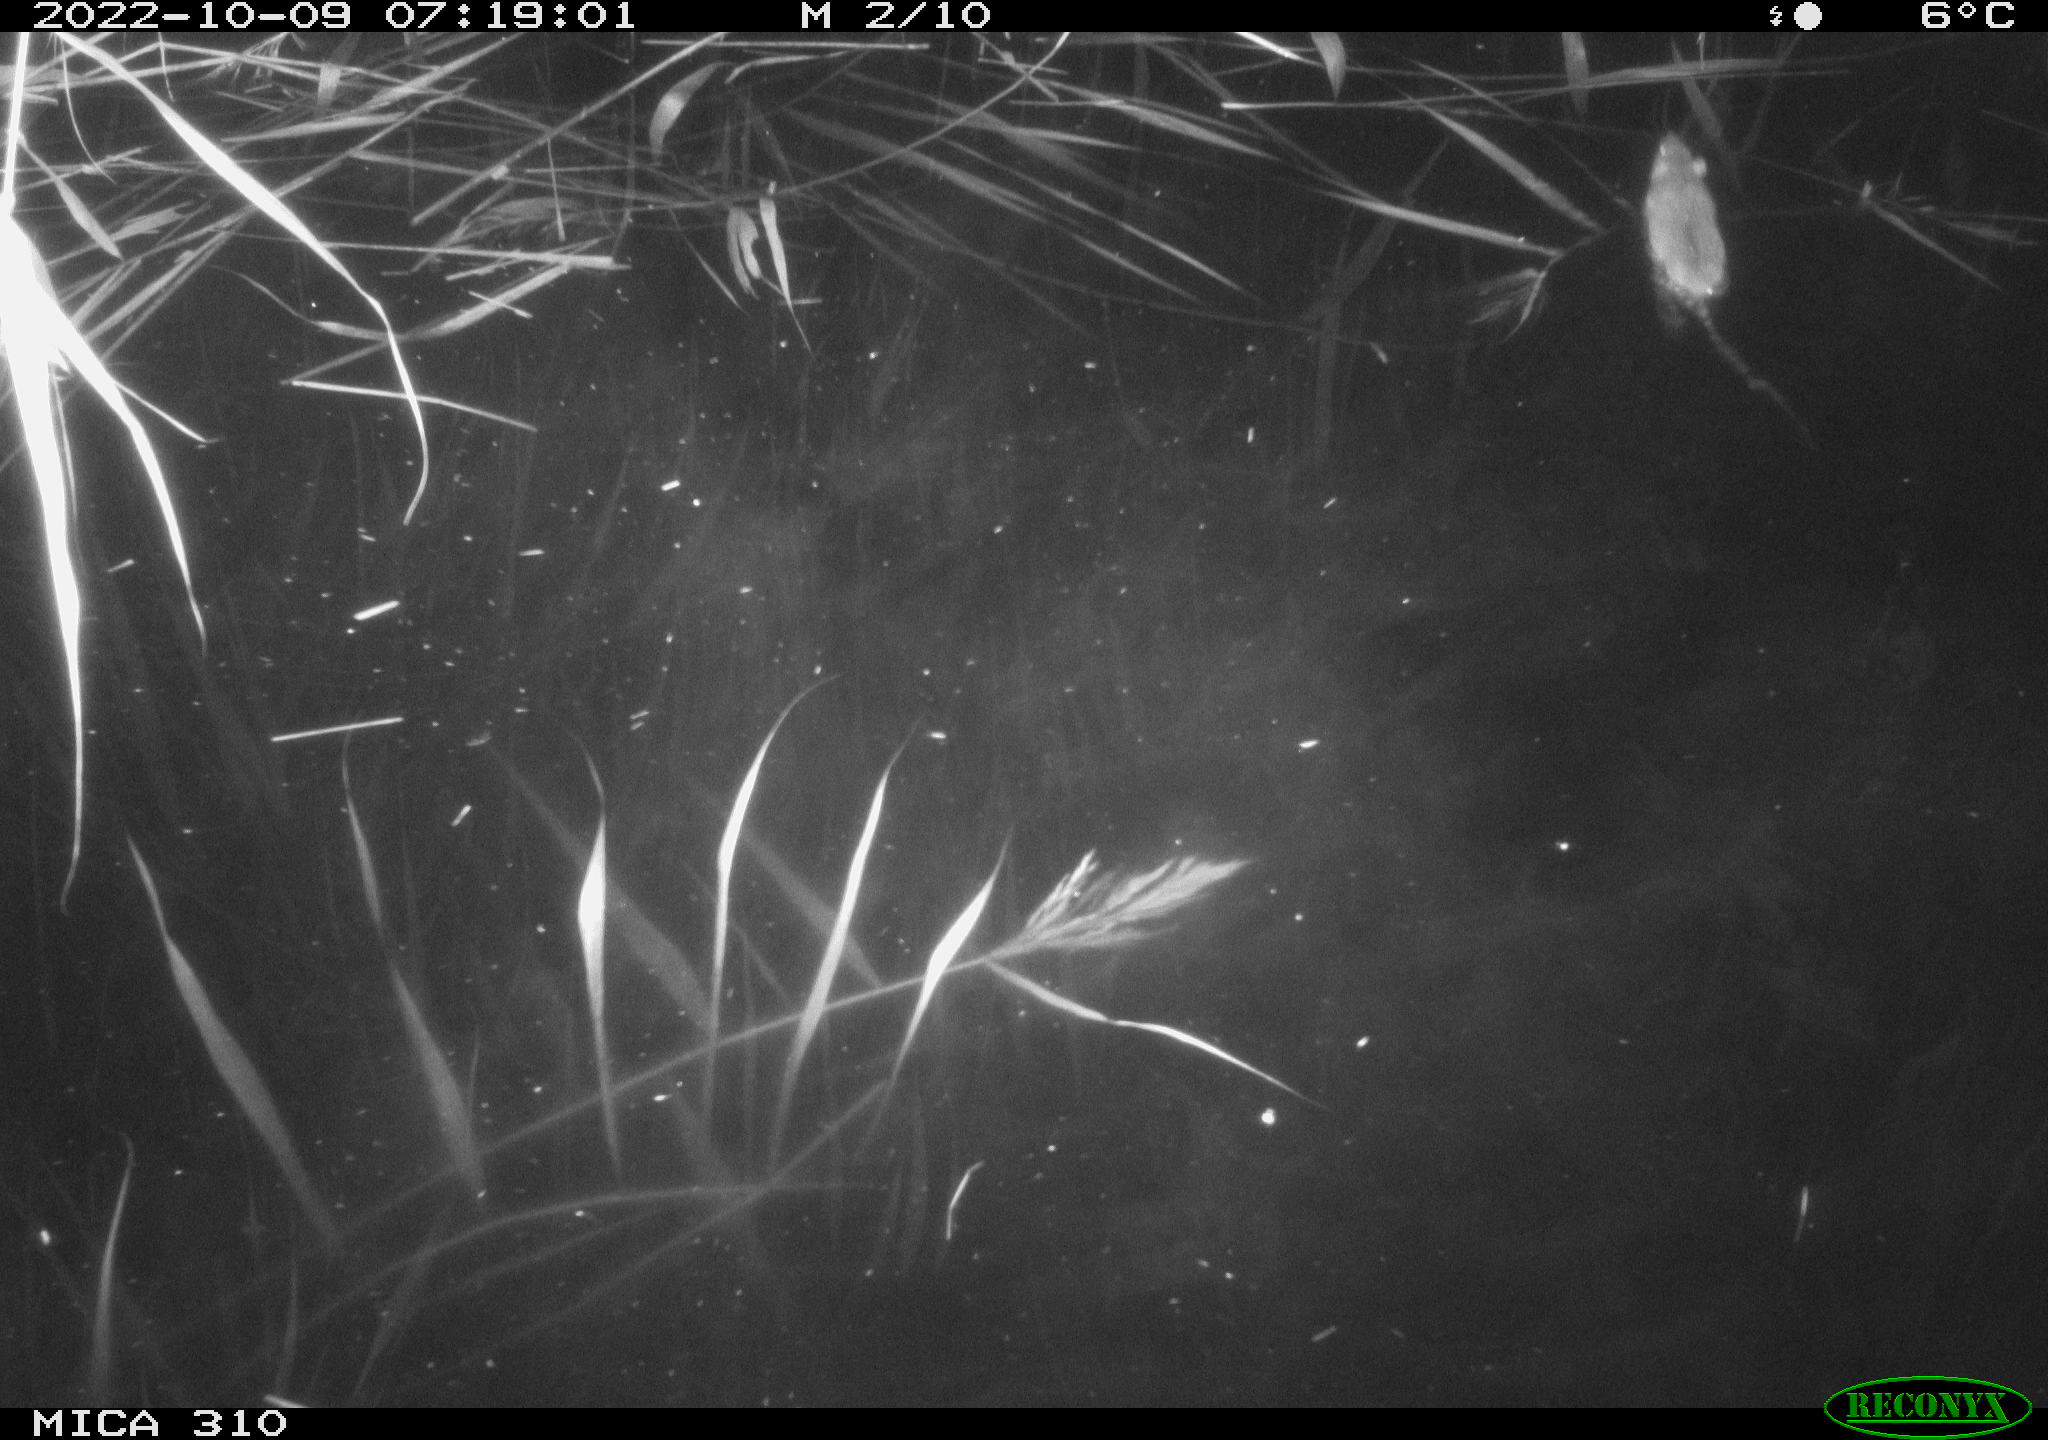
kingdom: Animalia
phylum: Chordata
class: Mammalia
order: Rodentia
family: Muridae
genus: Rattus
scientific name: Rattus norvegicus
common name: Brown rat
